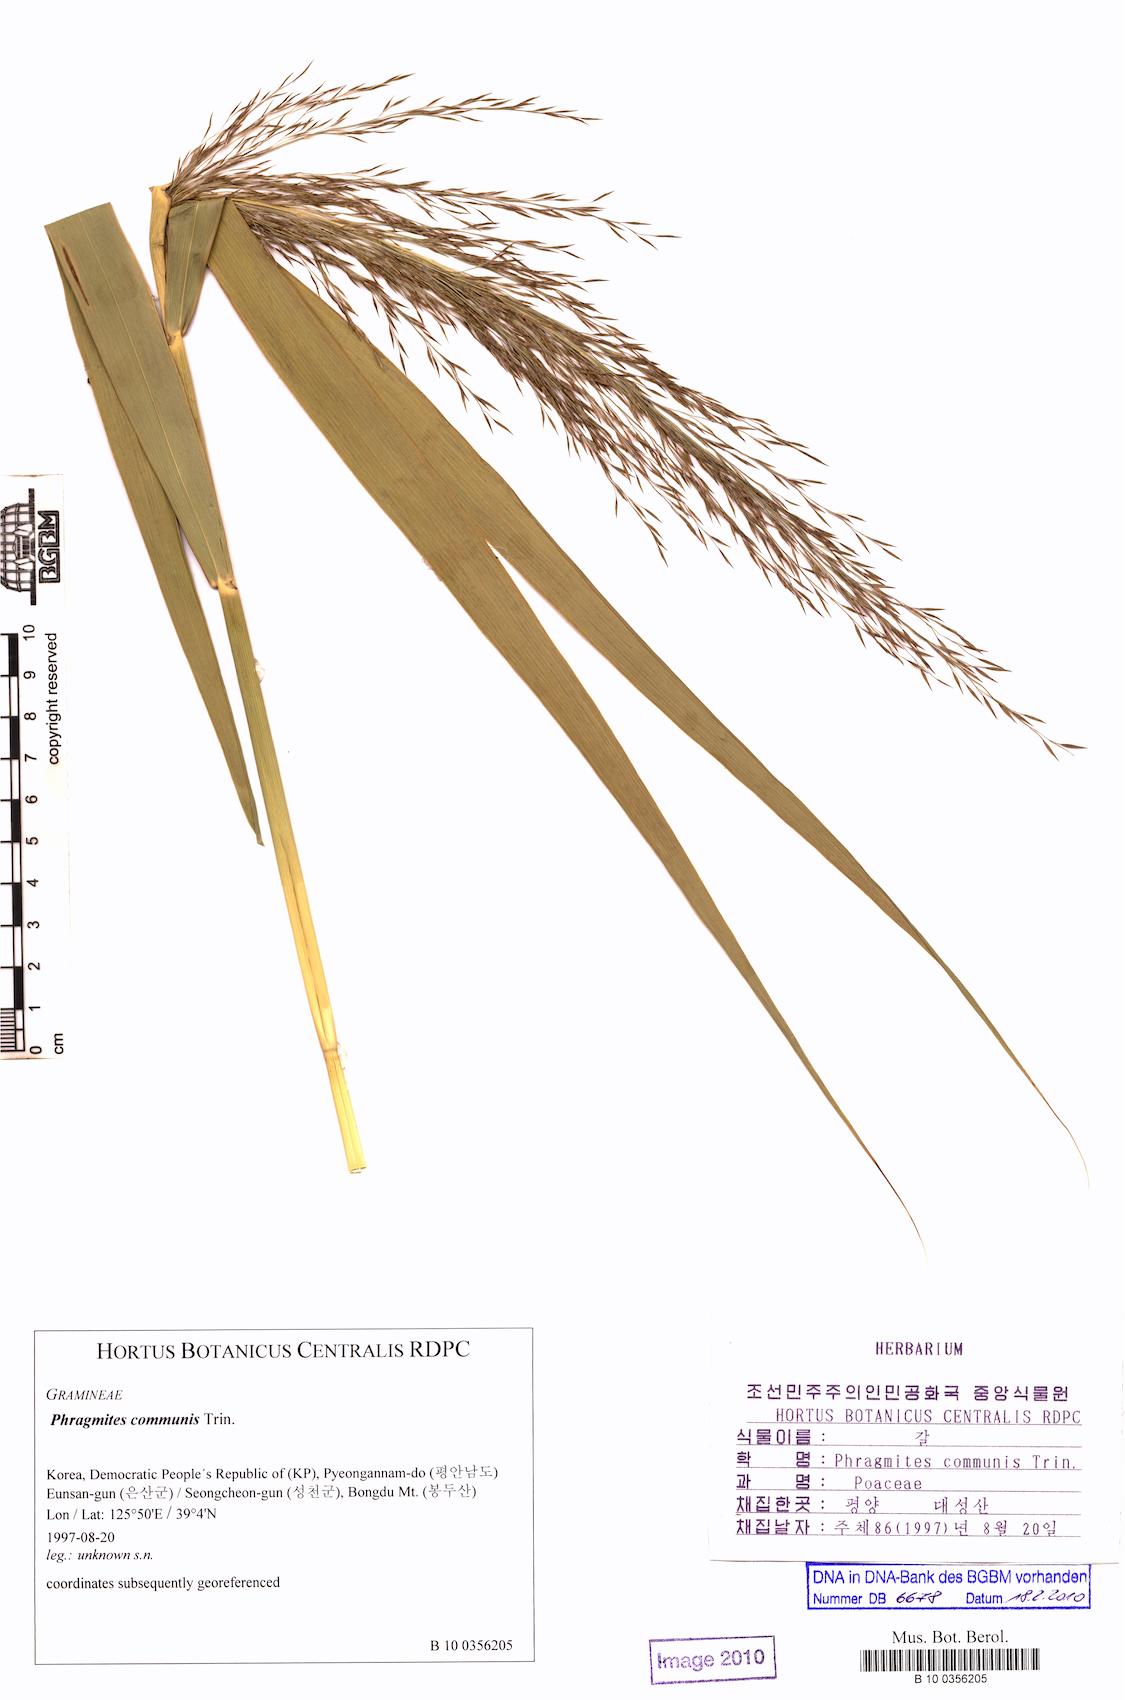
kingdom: Plantae
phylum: Tracheophyta
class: Liliopsida
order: Poales
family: Poaceae
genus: Phragmites
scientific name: Phragmites australis
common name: Common reed
